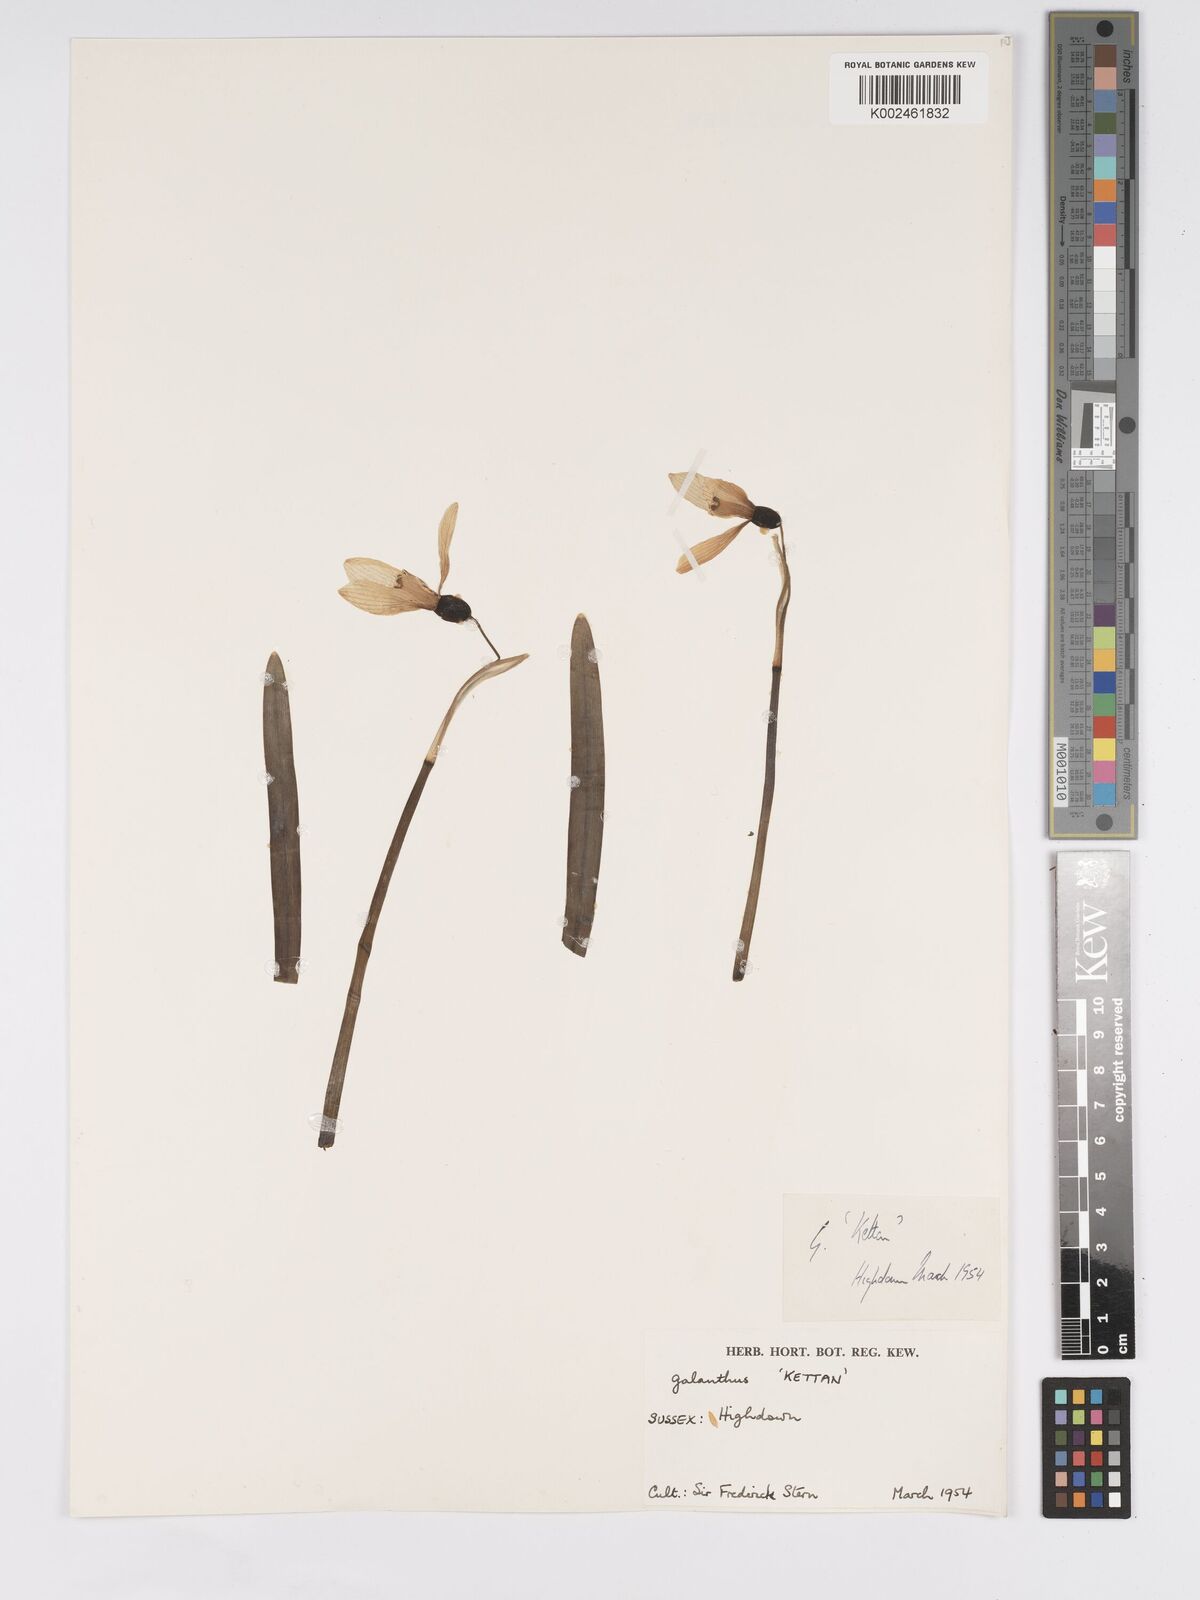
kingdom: Plantae
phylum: Tracheophyta
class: Liliopsida
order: Asparagales
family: Amaryllidaceae
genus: Galanthus
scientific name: Galanthus
